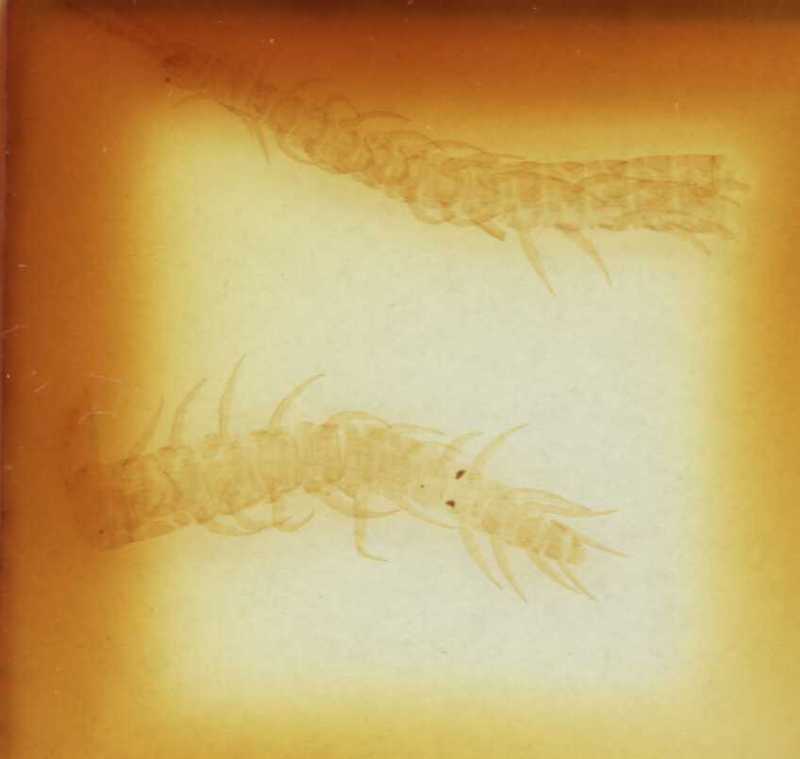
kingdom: Animalia
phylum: Arthropoda
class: Chilopoda
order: Geophilomorpha
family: Linotaeniidae
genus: Strigamia
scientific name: Strigamia crassipes
